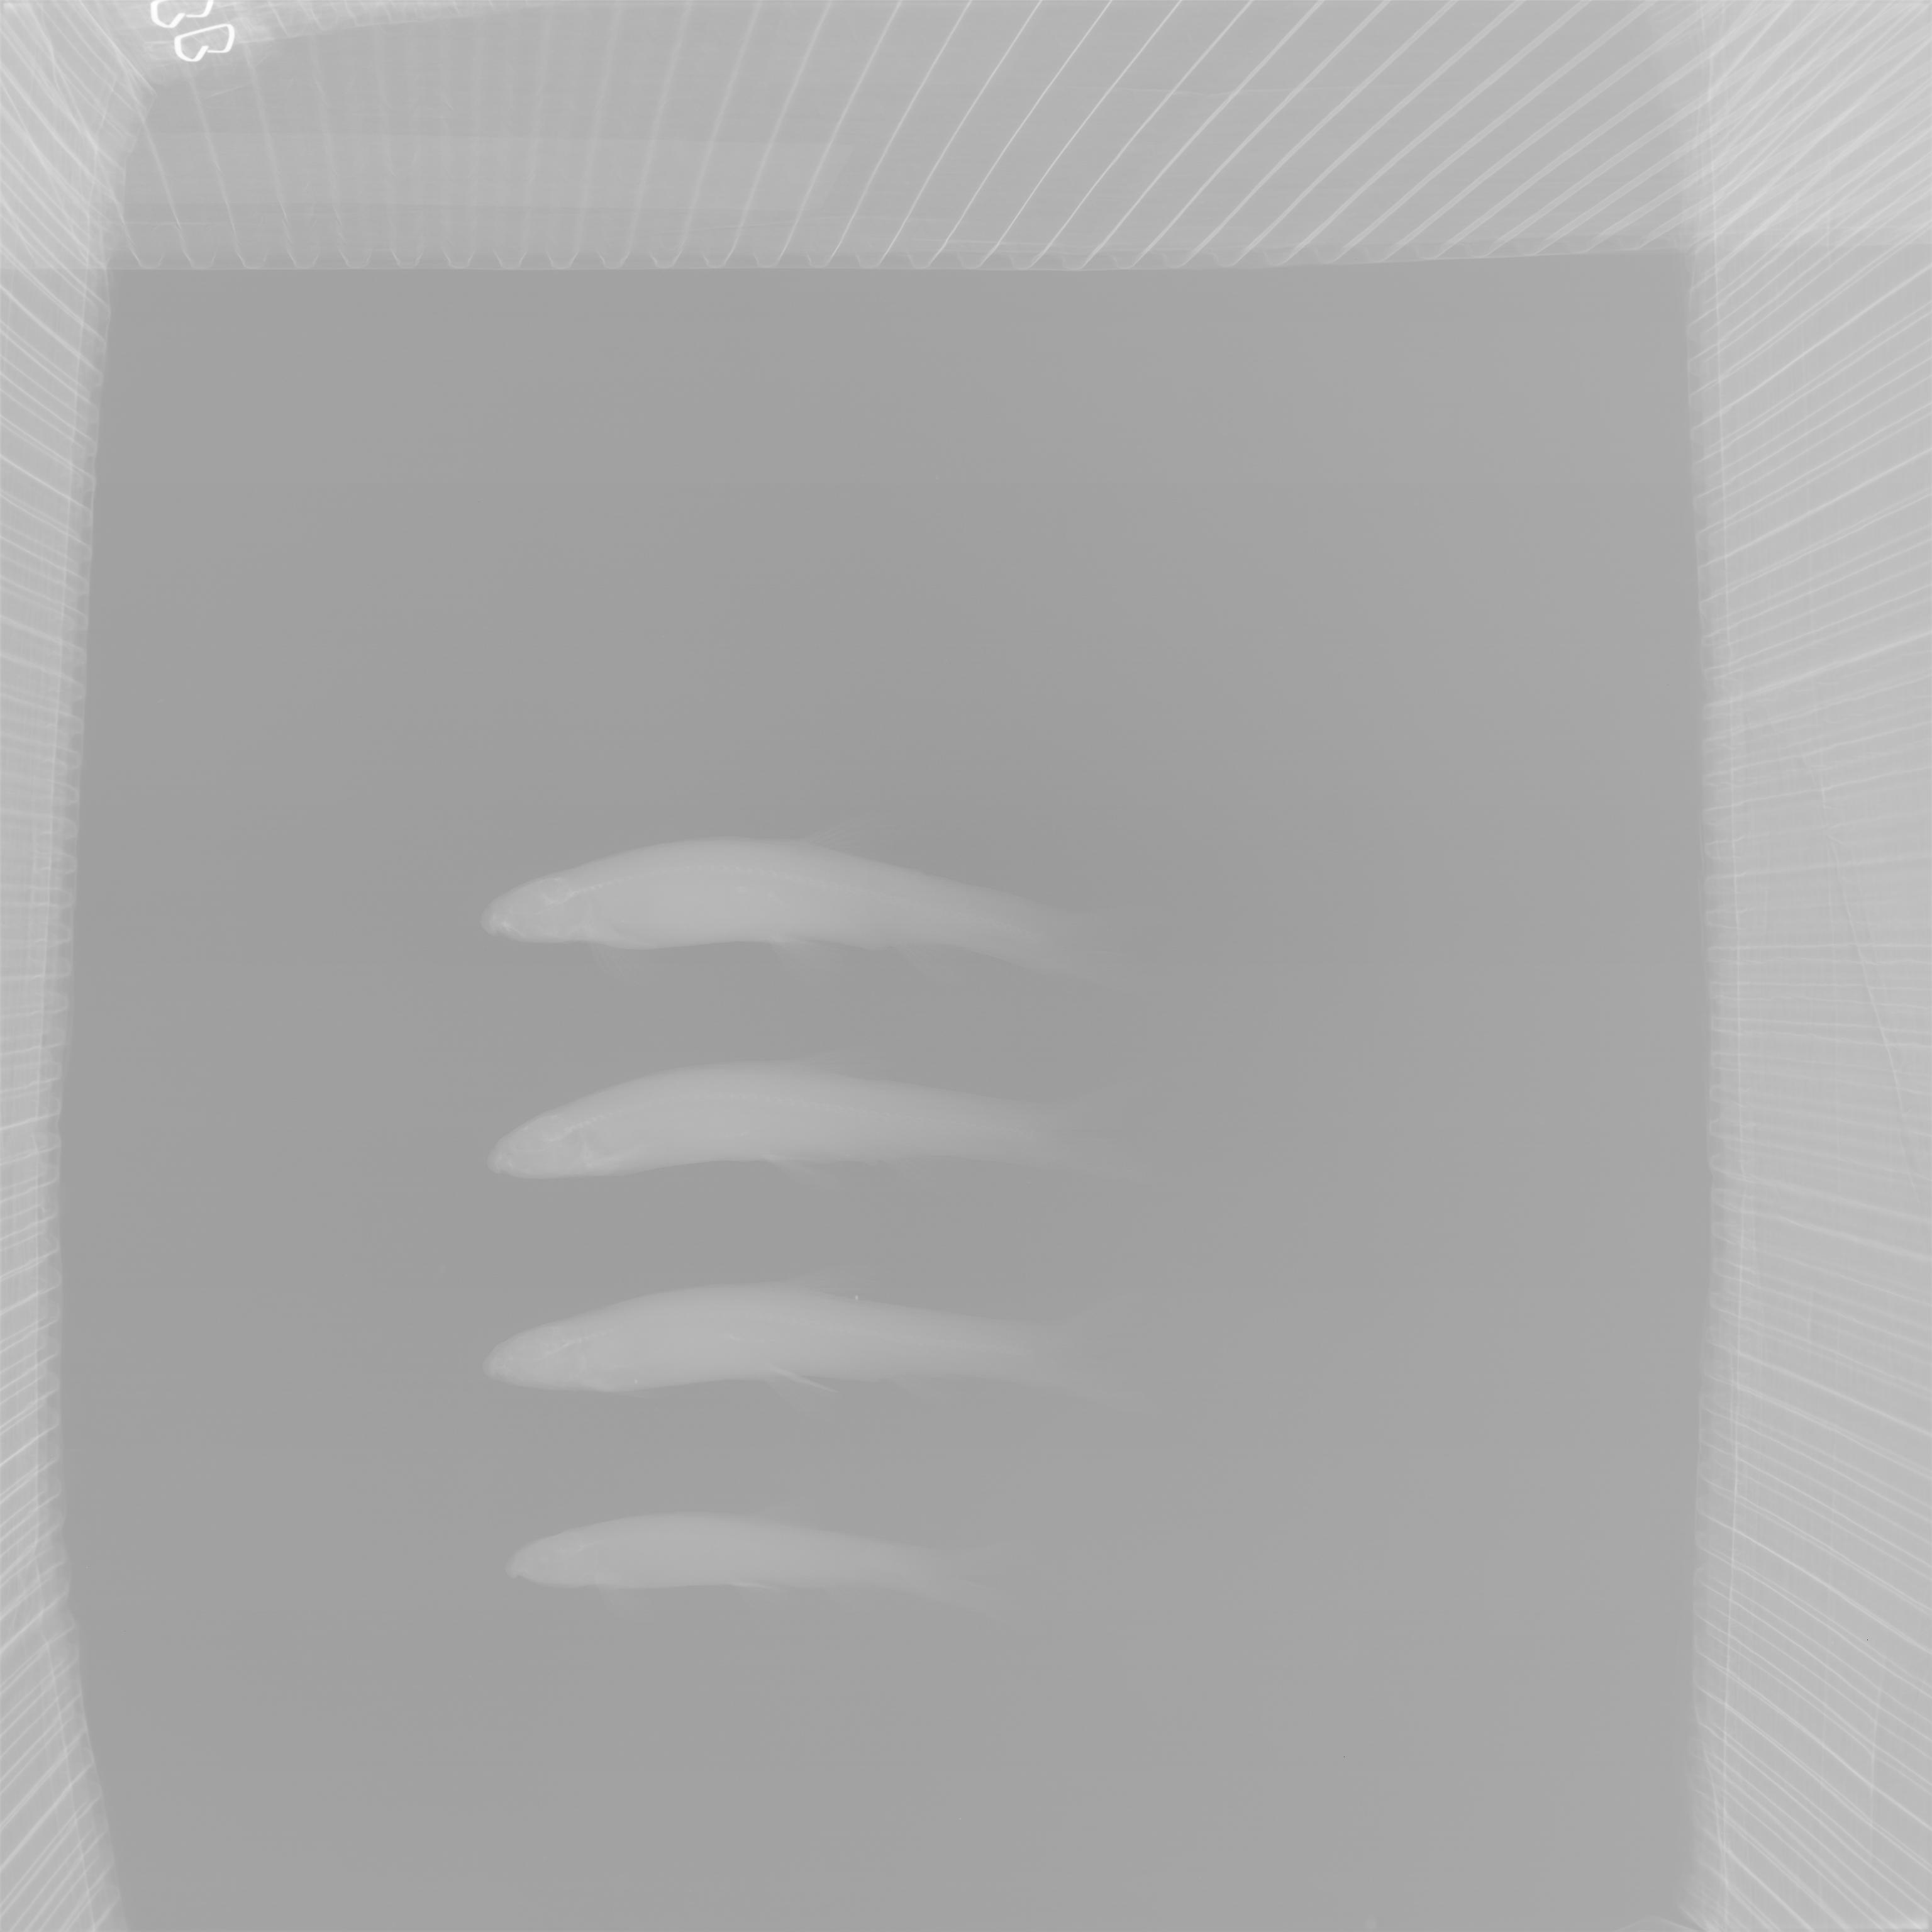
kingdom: Animalia
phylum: Chordata
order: Gonorynchiformes
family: Kneriidae
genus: Kneria
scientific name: Kneria
